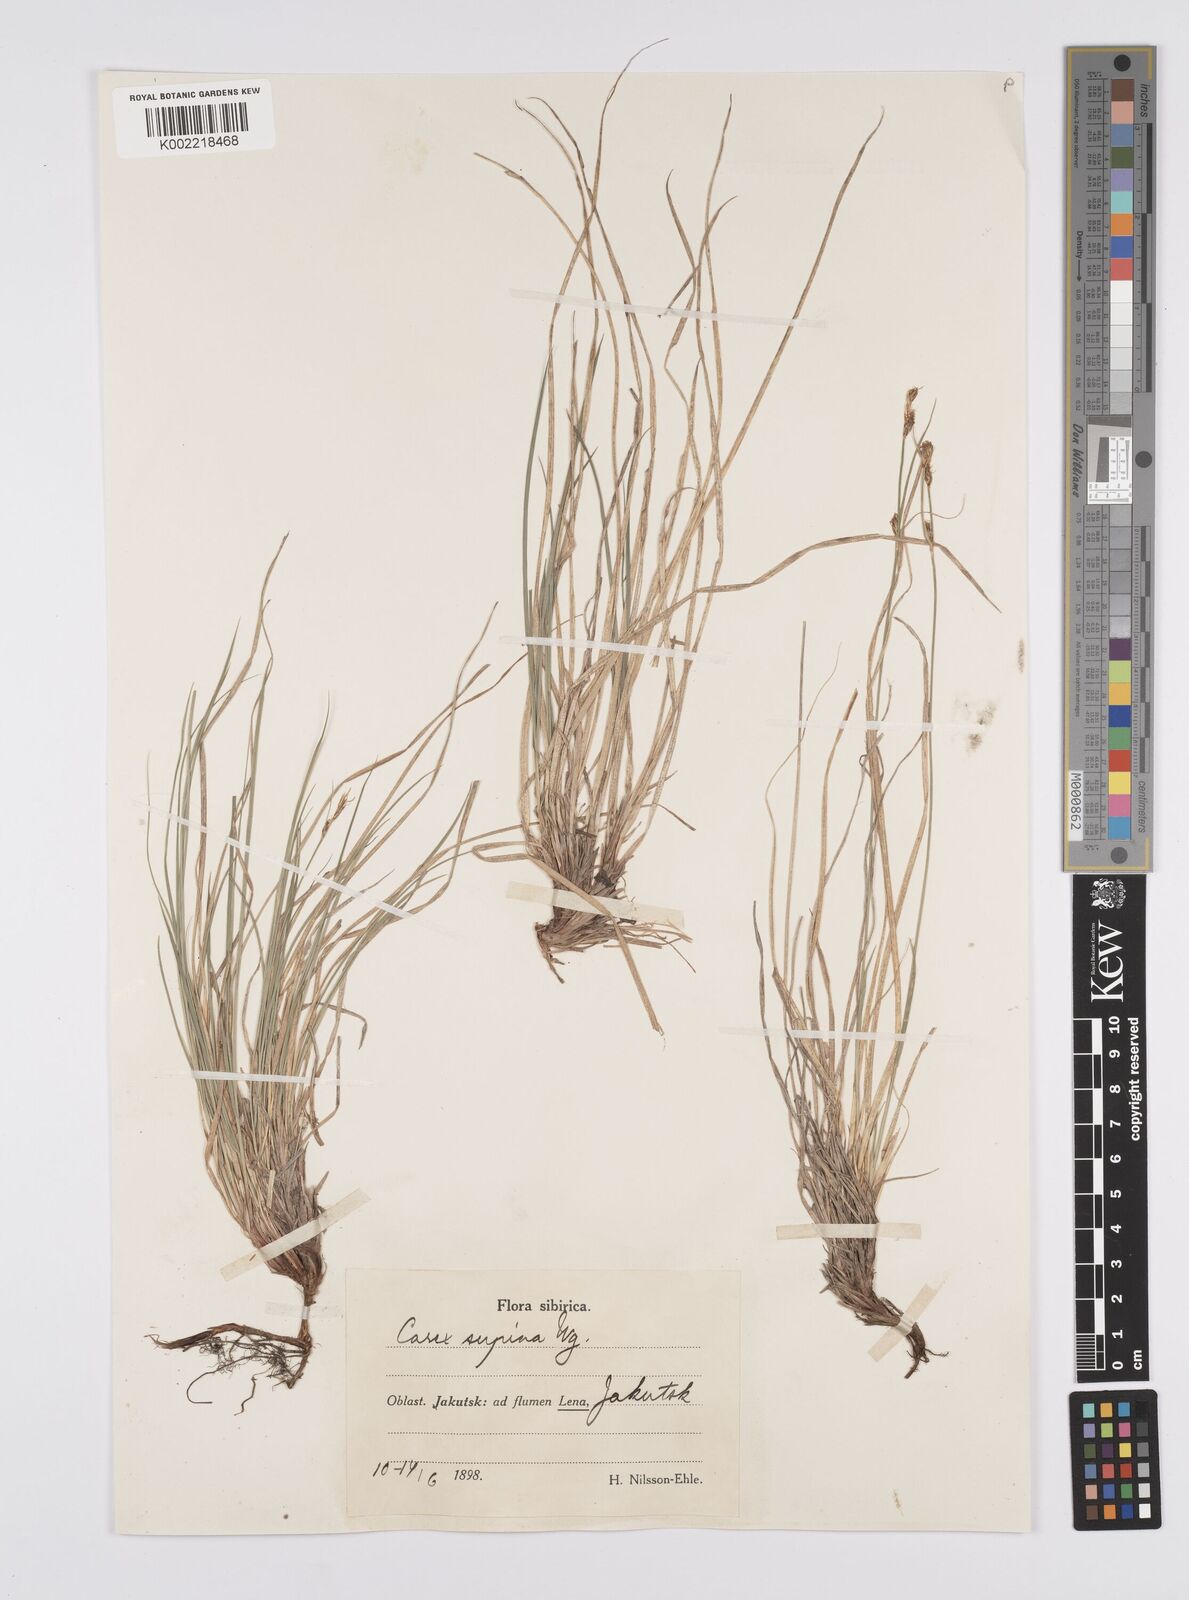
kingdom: Plantae
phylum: Tracheophyta
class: Liliopsida
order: Poales
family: Cyperaceae
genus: Carex
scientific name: Carex amgunensis
